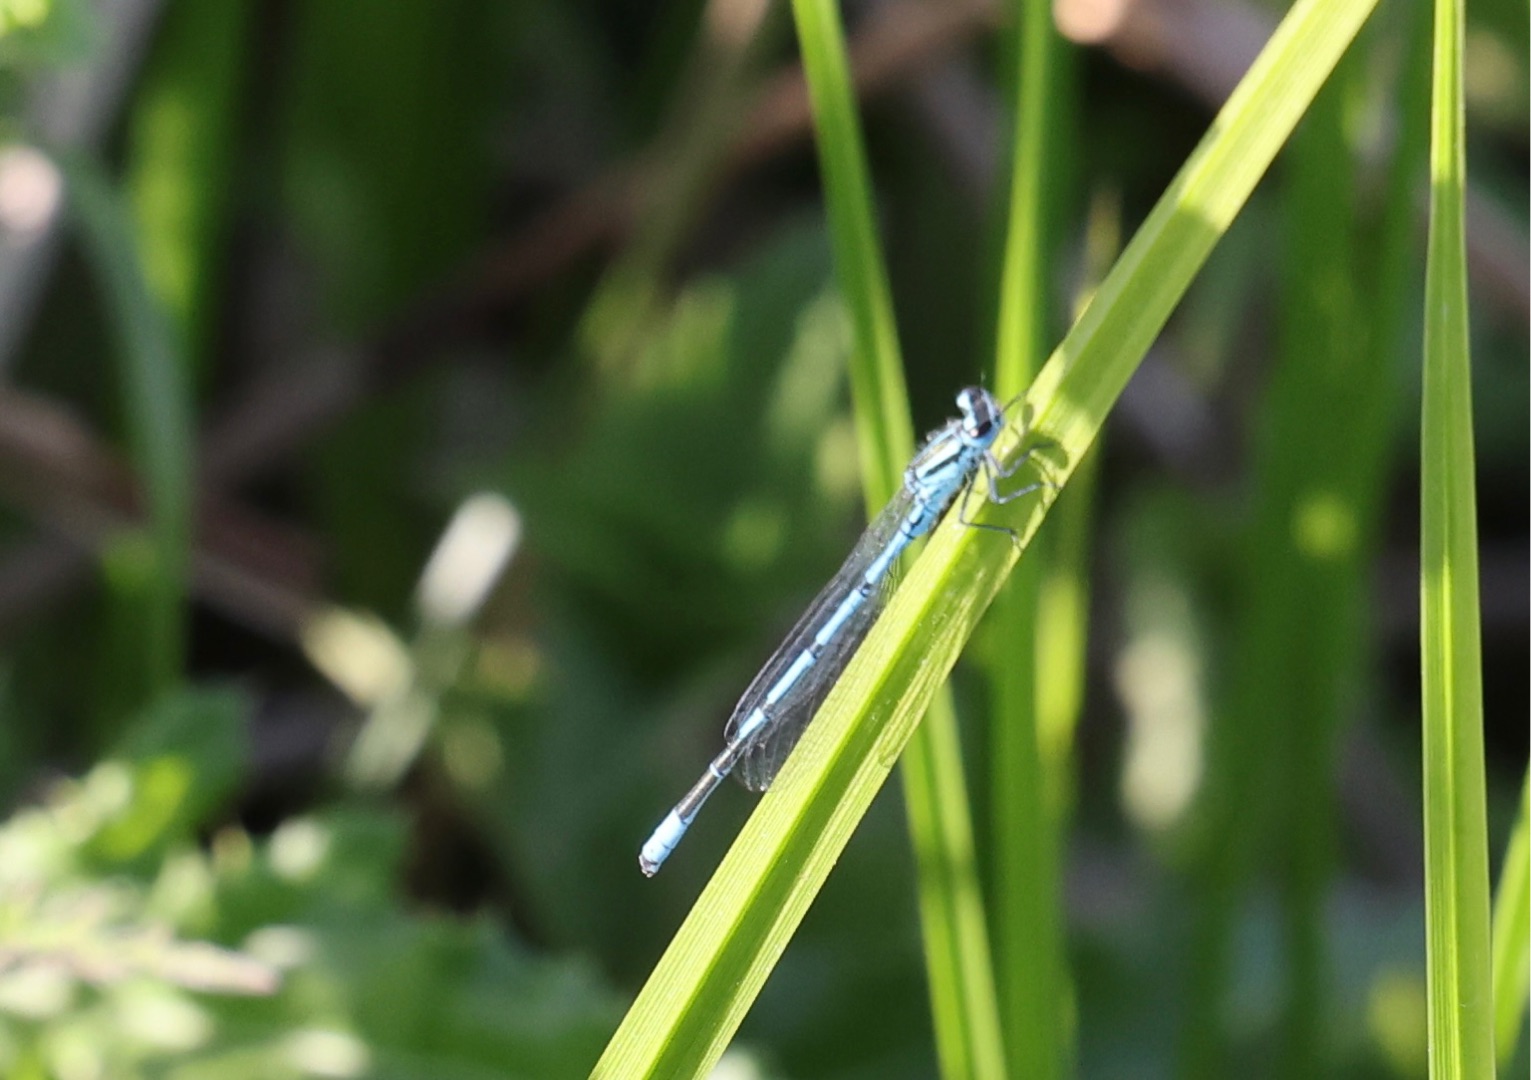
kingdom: Animalia
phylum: Arthropoda
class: Insecta
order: Odonata
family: Coenagrionidae
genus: Coenagrion
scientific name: Coenagrion puella
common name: Hestesko-vandnymfe
